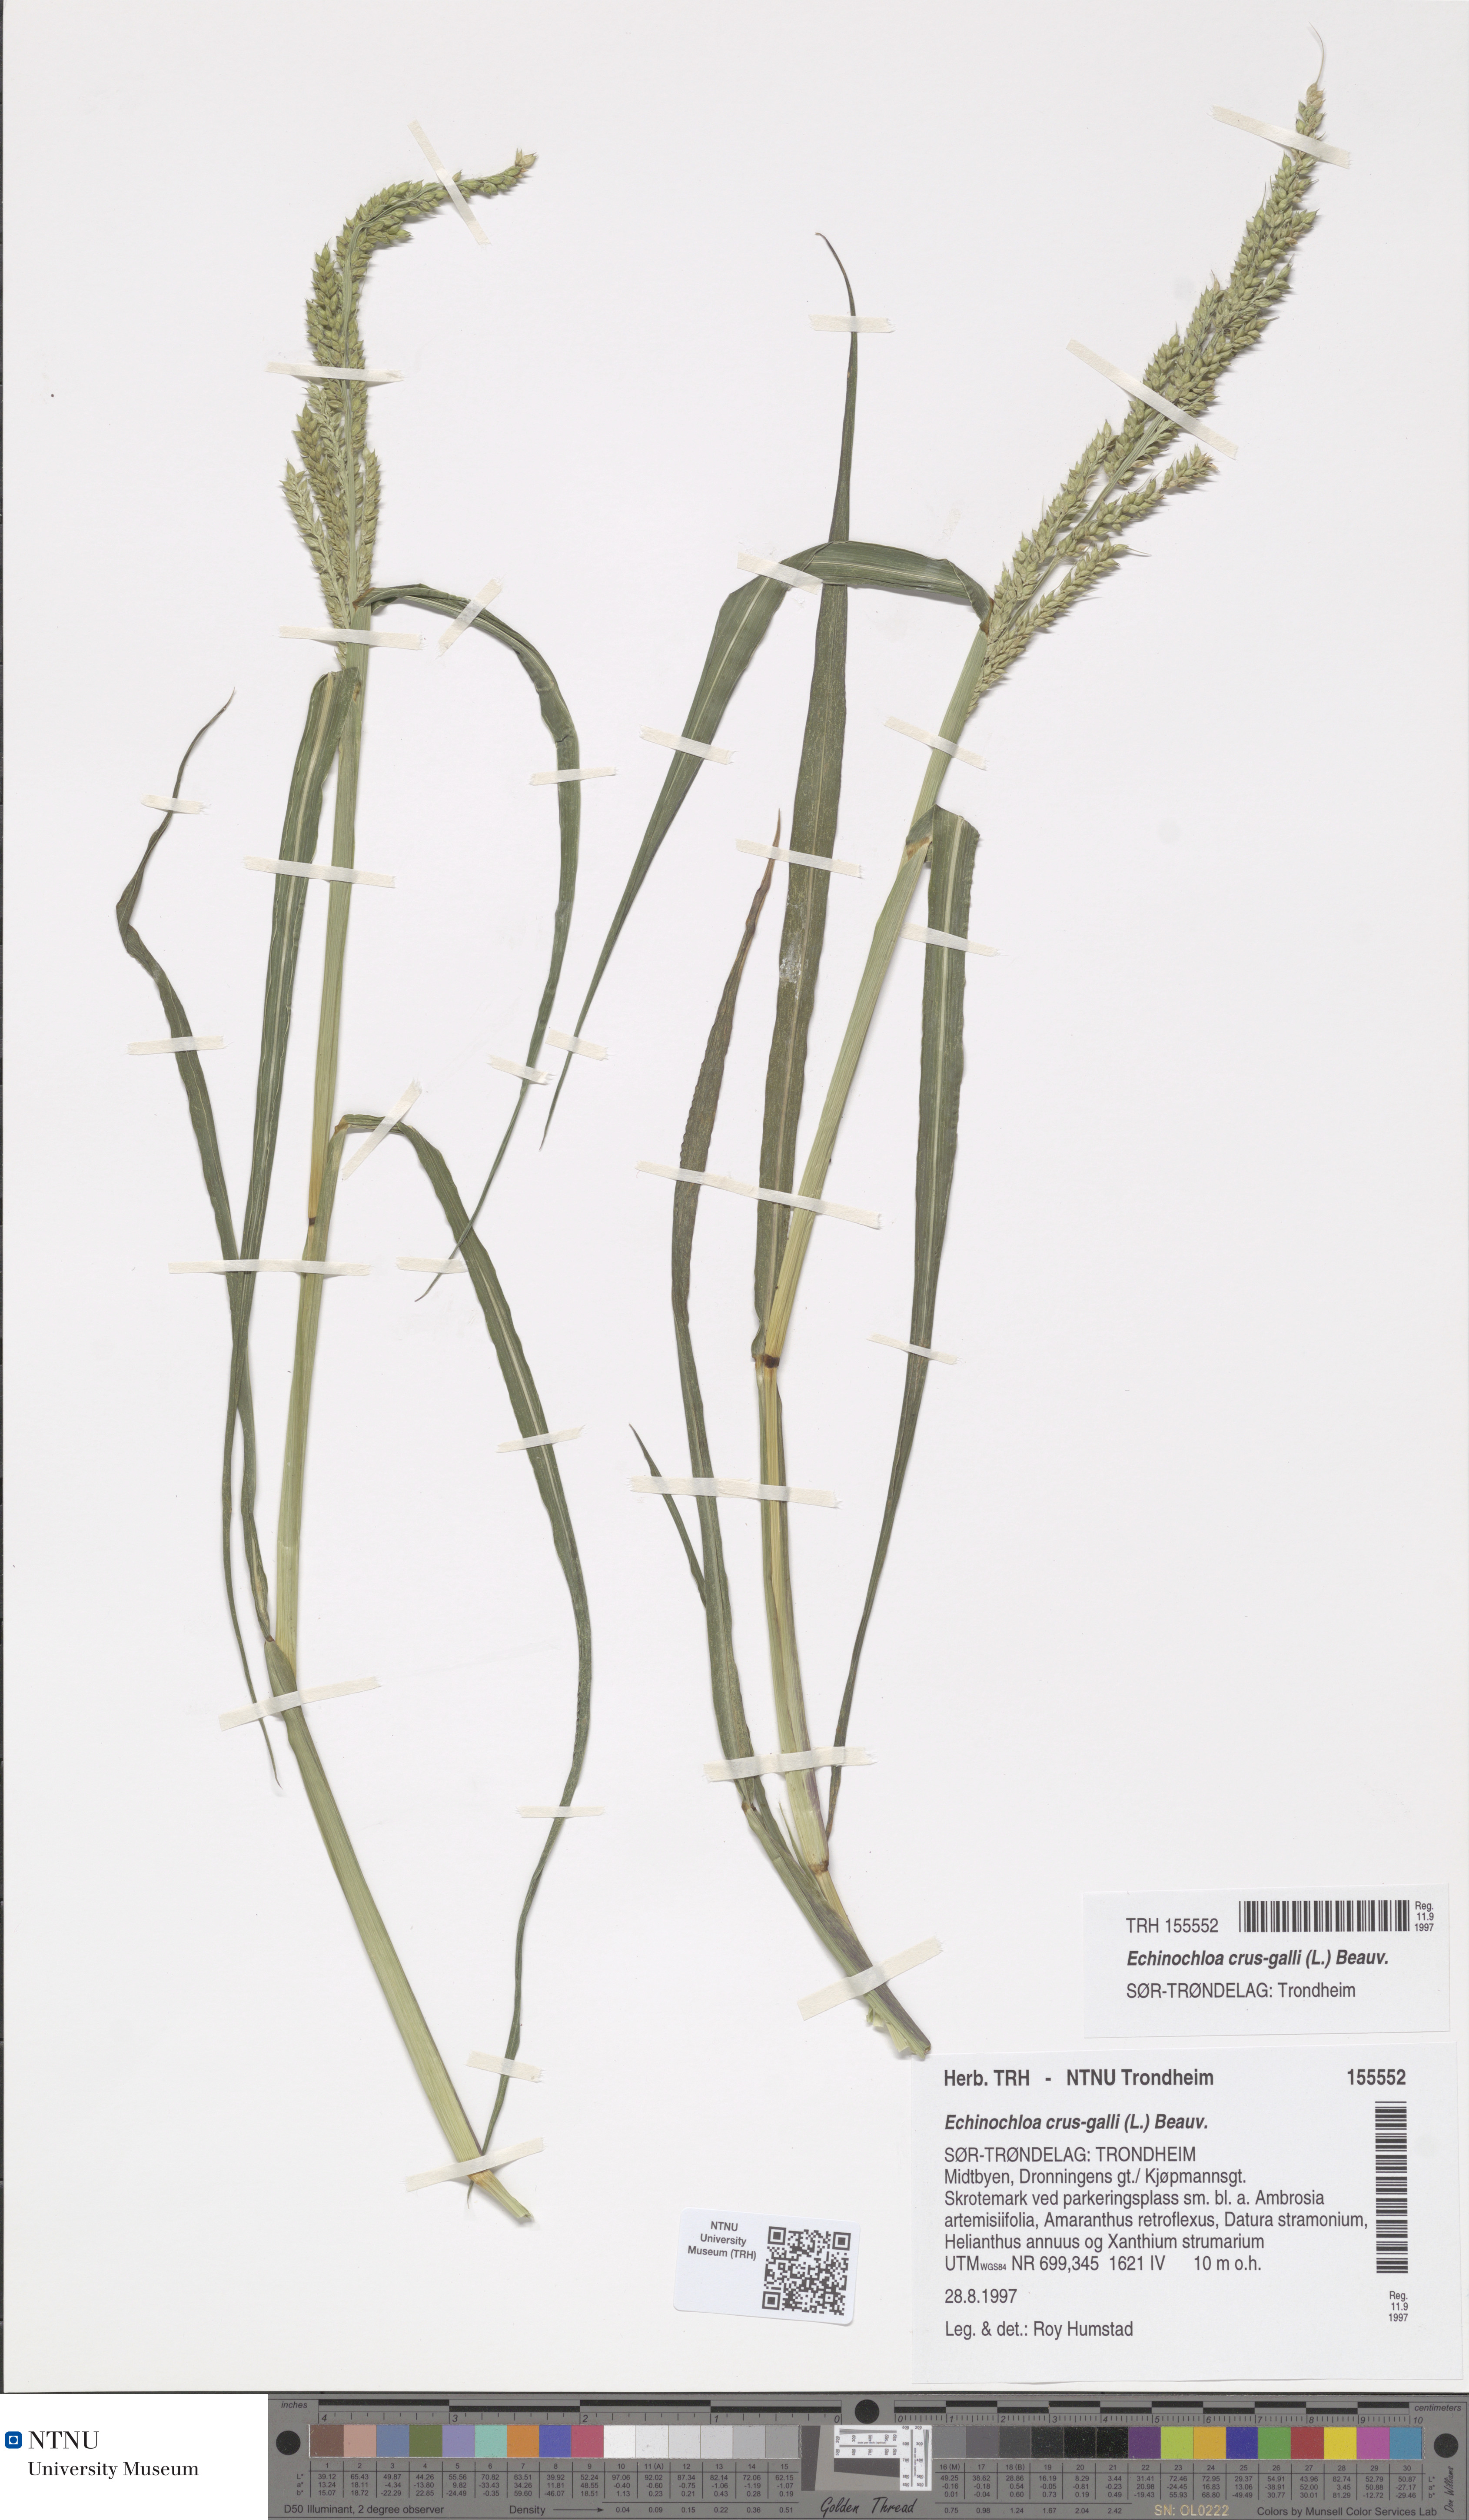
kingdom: Plantae
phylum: Tracheophyta
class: Liliopsida
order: Poales
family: Poaceae
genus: Echinochloa
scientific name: Echinochloa crus-galli
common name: Cockspur
